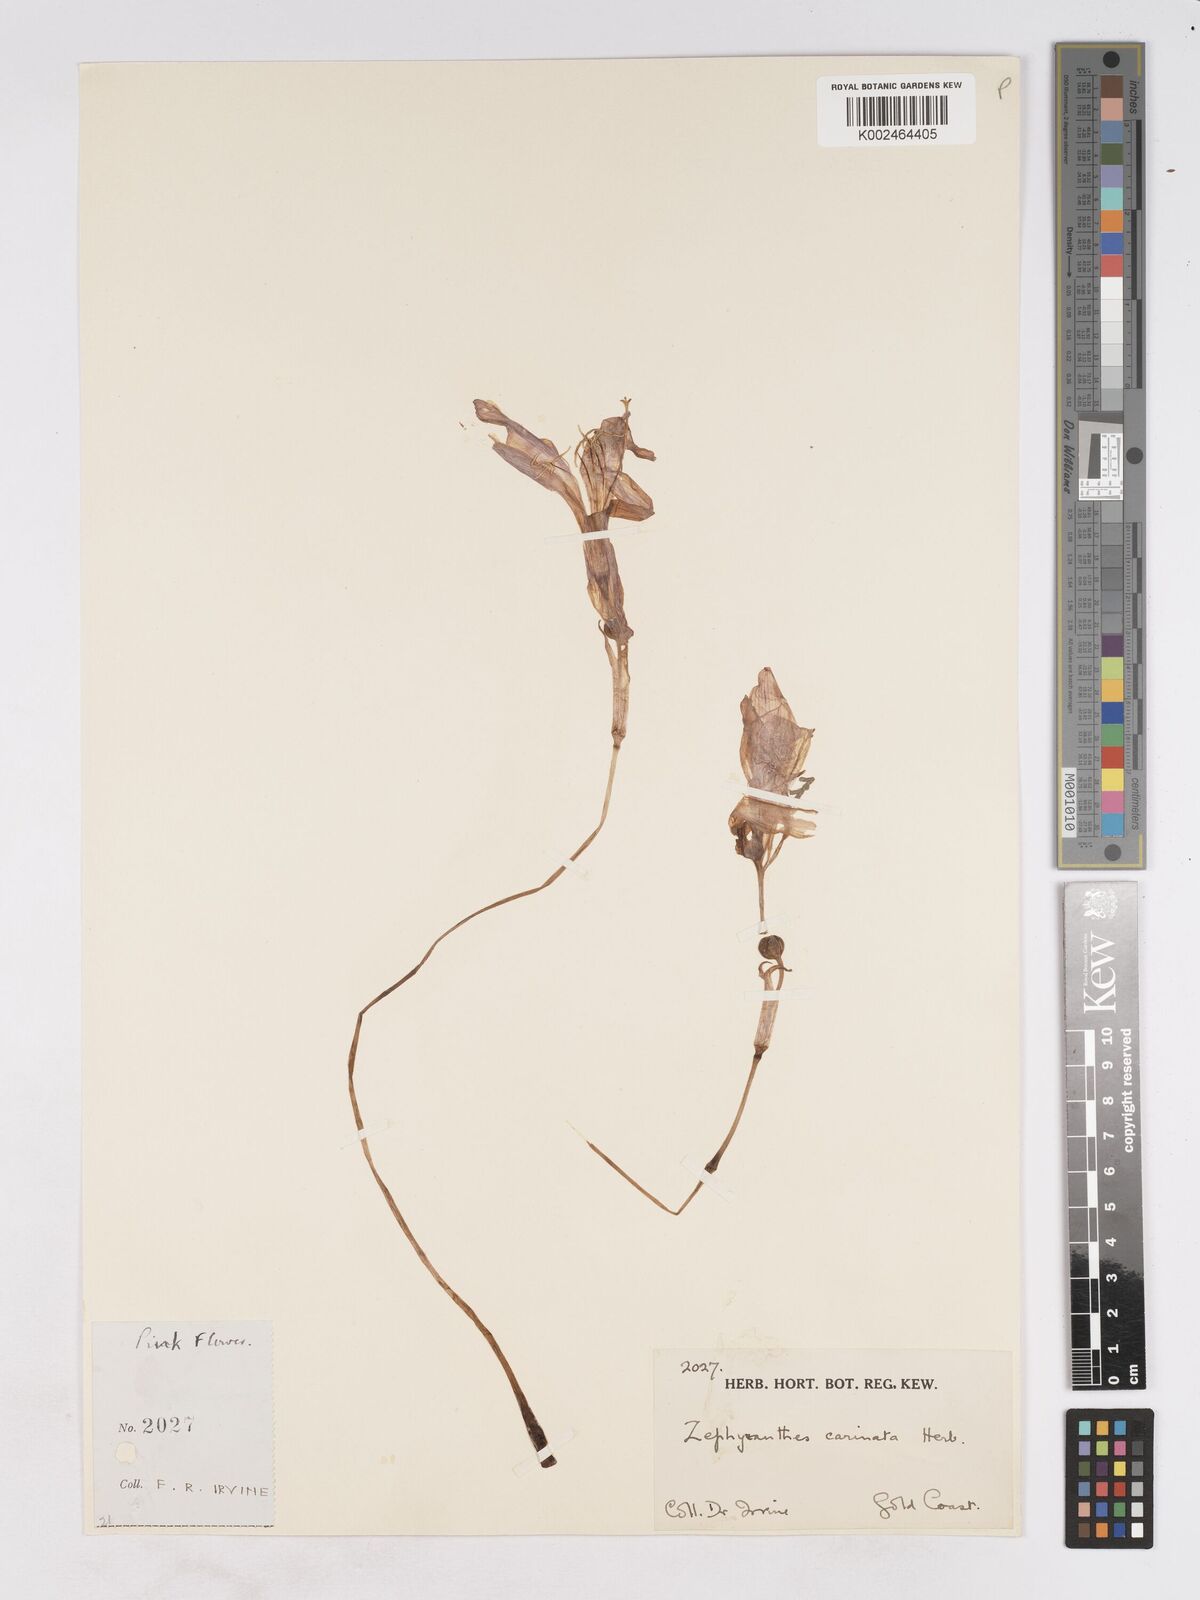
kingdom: Plantae
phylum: Tracheophyta
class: Liliopsida
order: Asparagales
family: Amaryllidaceae
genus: Zephyranthes
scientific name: Zephyranthes minuta
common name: Pink rain lily
